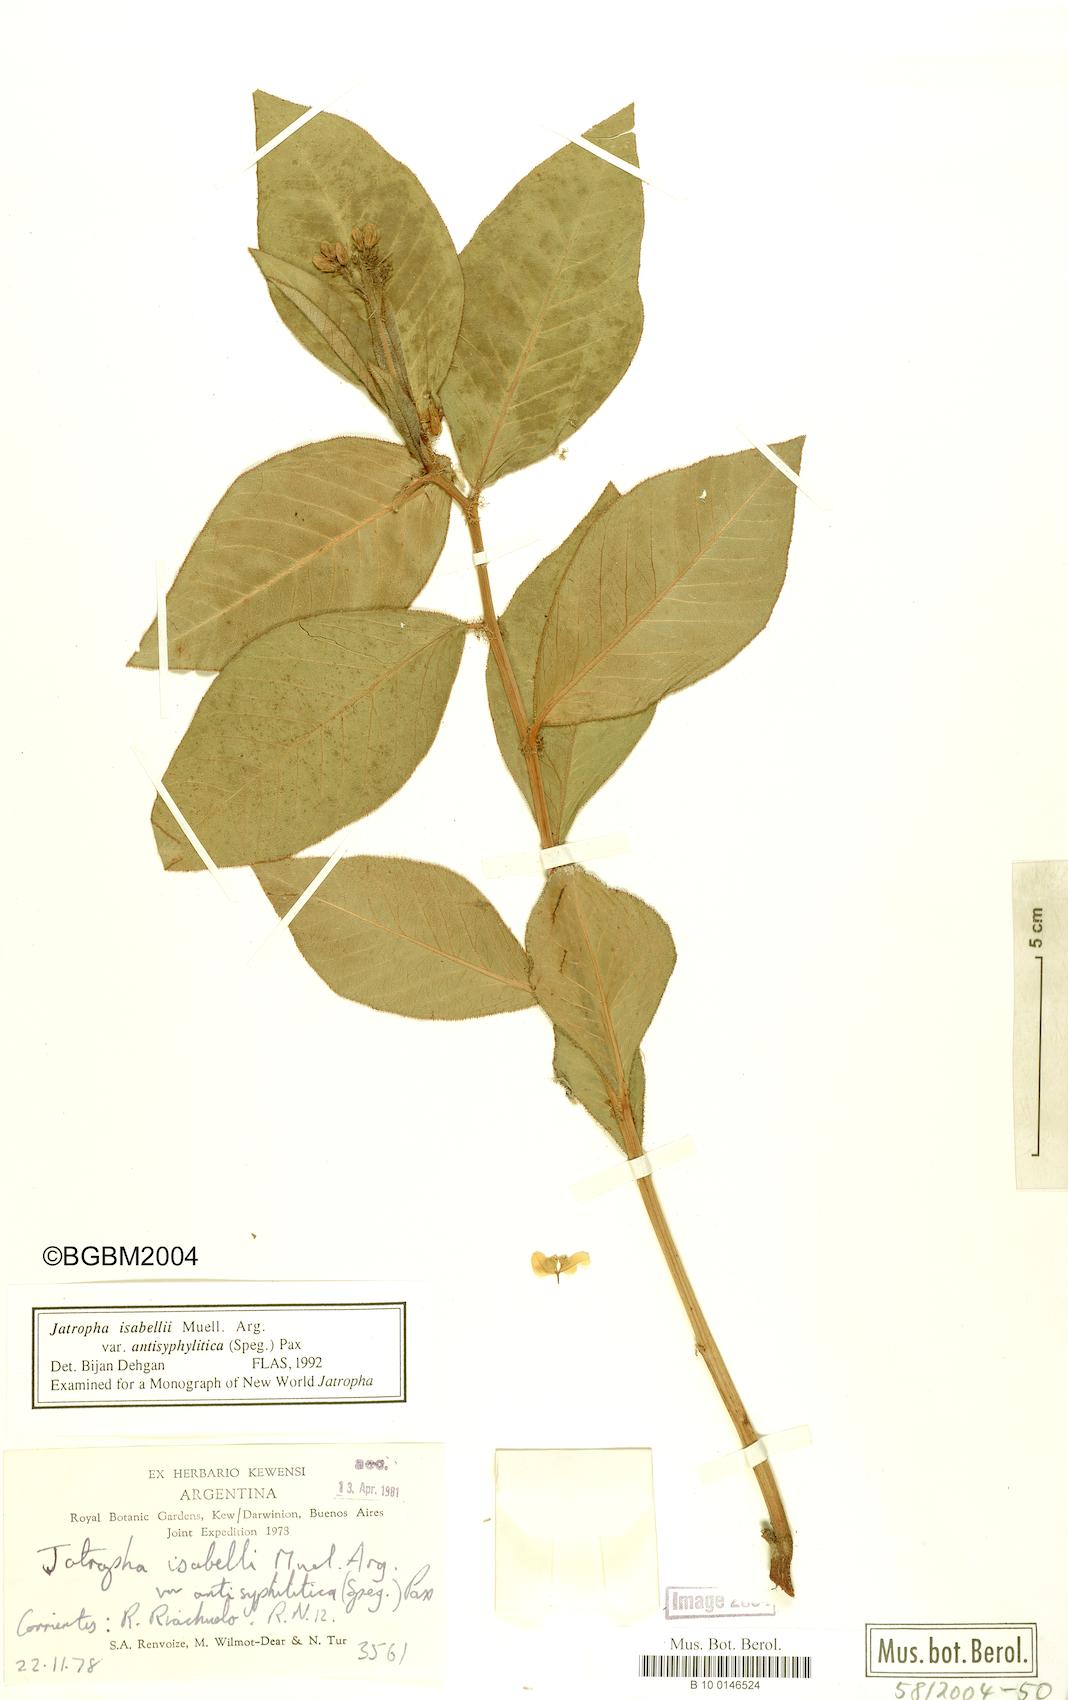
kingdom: Plantae
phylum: Tracheophyta
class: Magnoliopsida
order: Malpighiales
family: Euphorbiaceae
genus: Jatropha
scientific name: Jatropha isabellei
